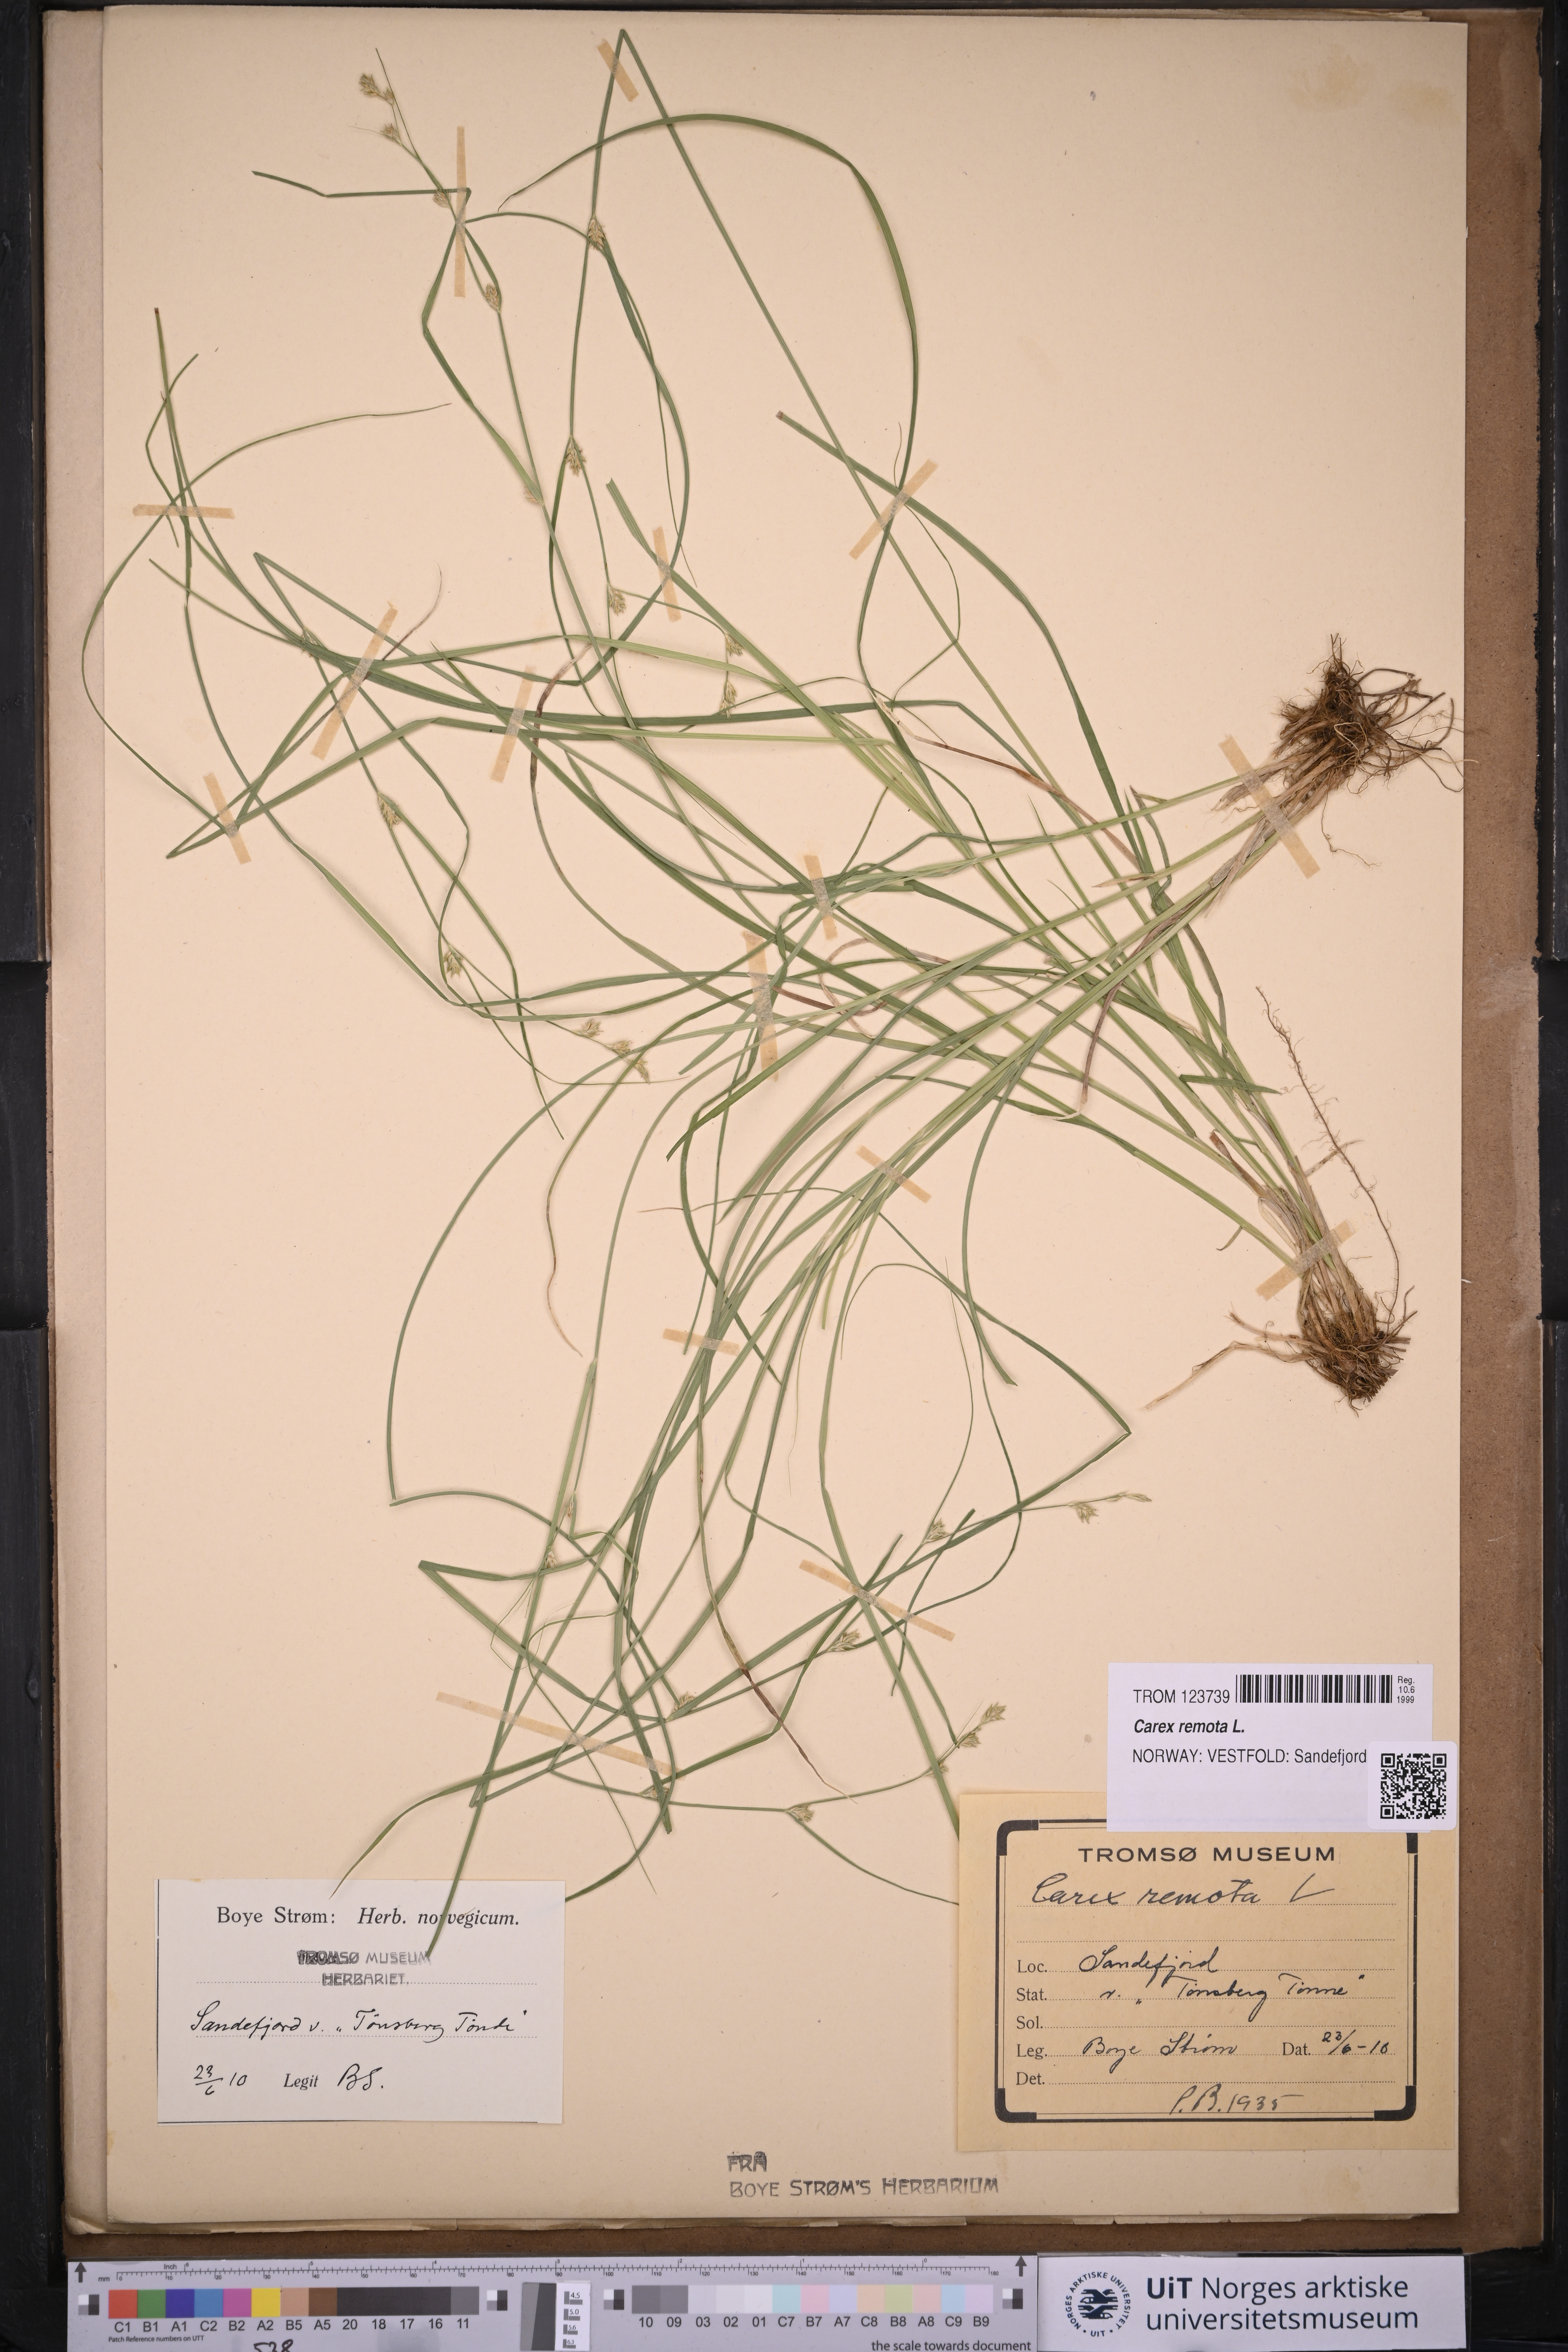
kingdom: Plantae
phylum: Tracheophyta
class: Liliopsida
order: Poales
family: Cyperaceae
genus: Carex
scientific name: Carex remota
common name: Remote sedge
